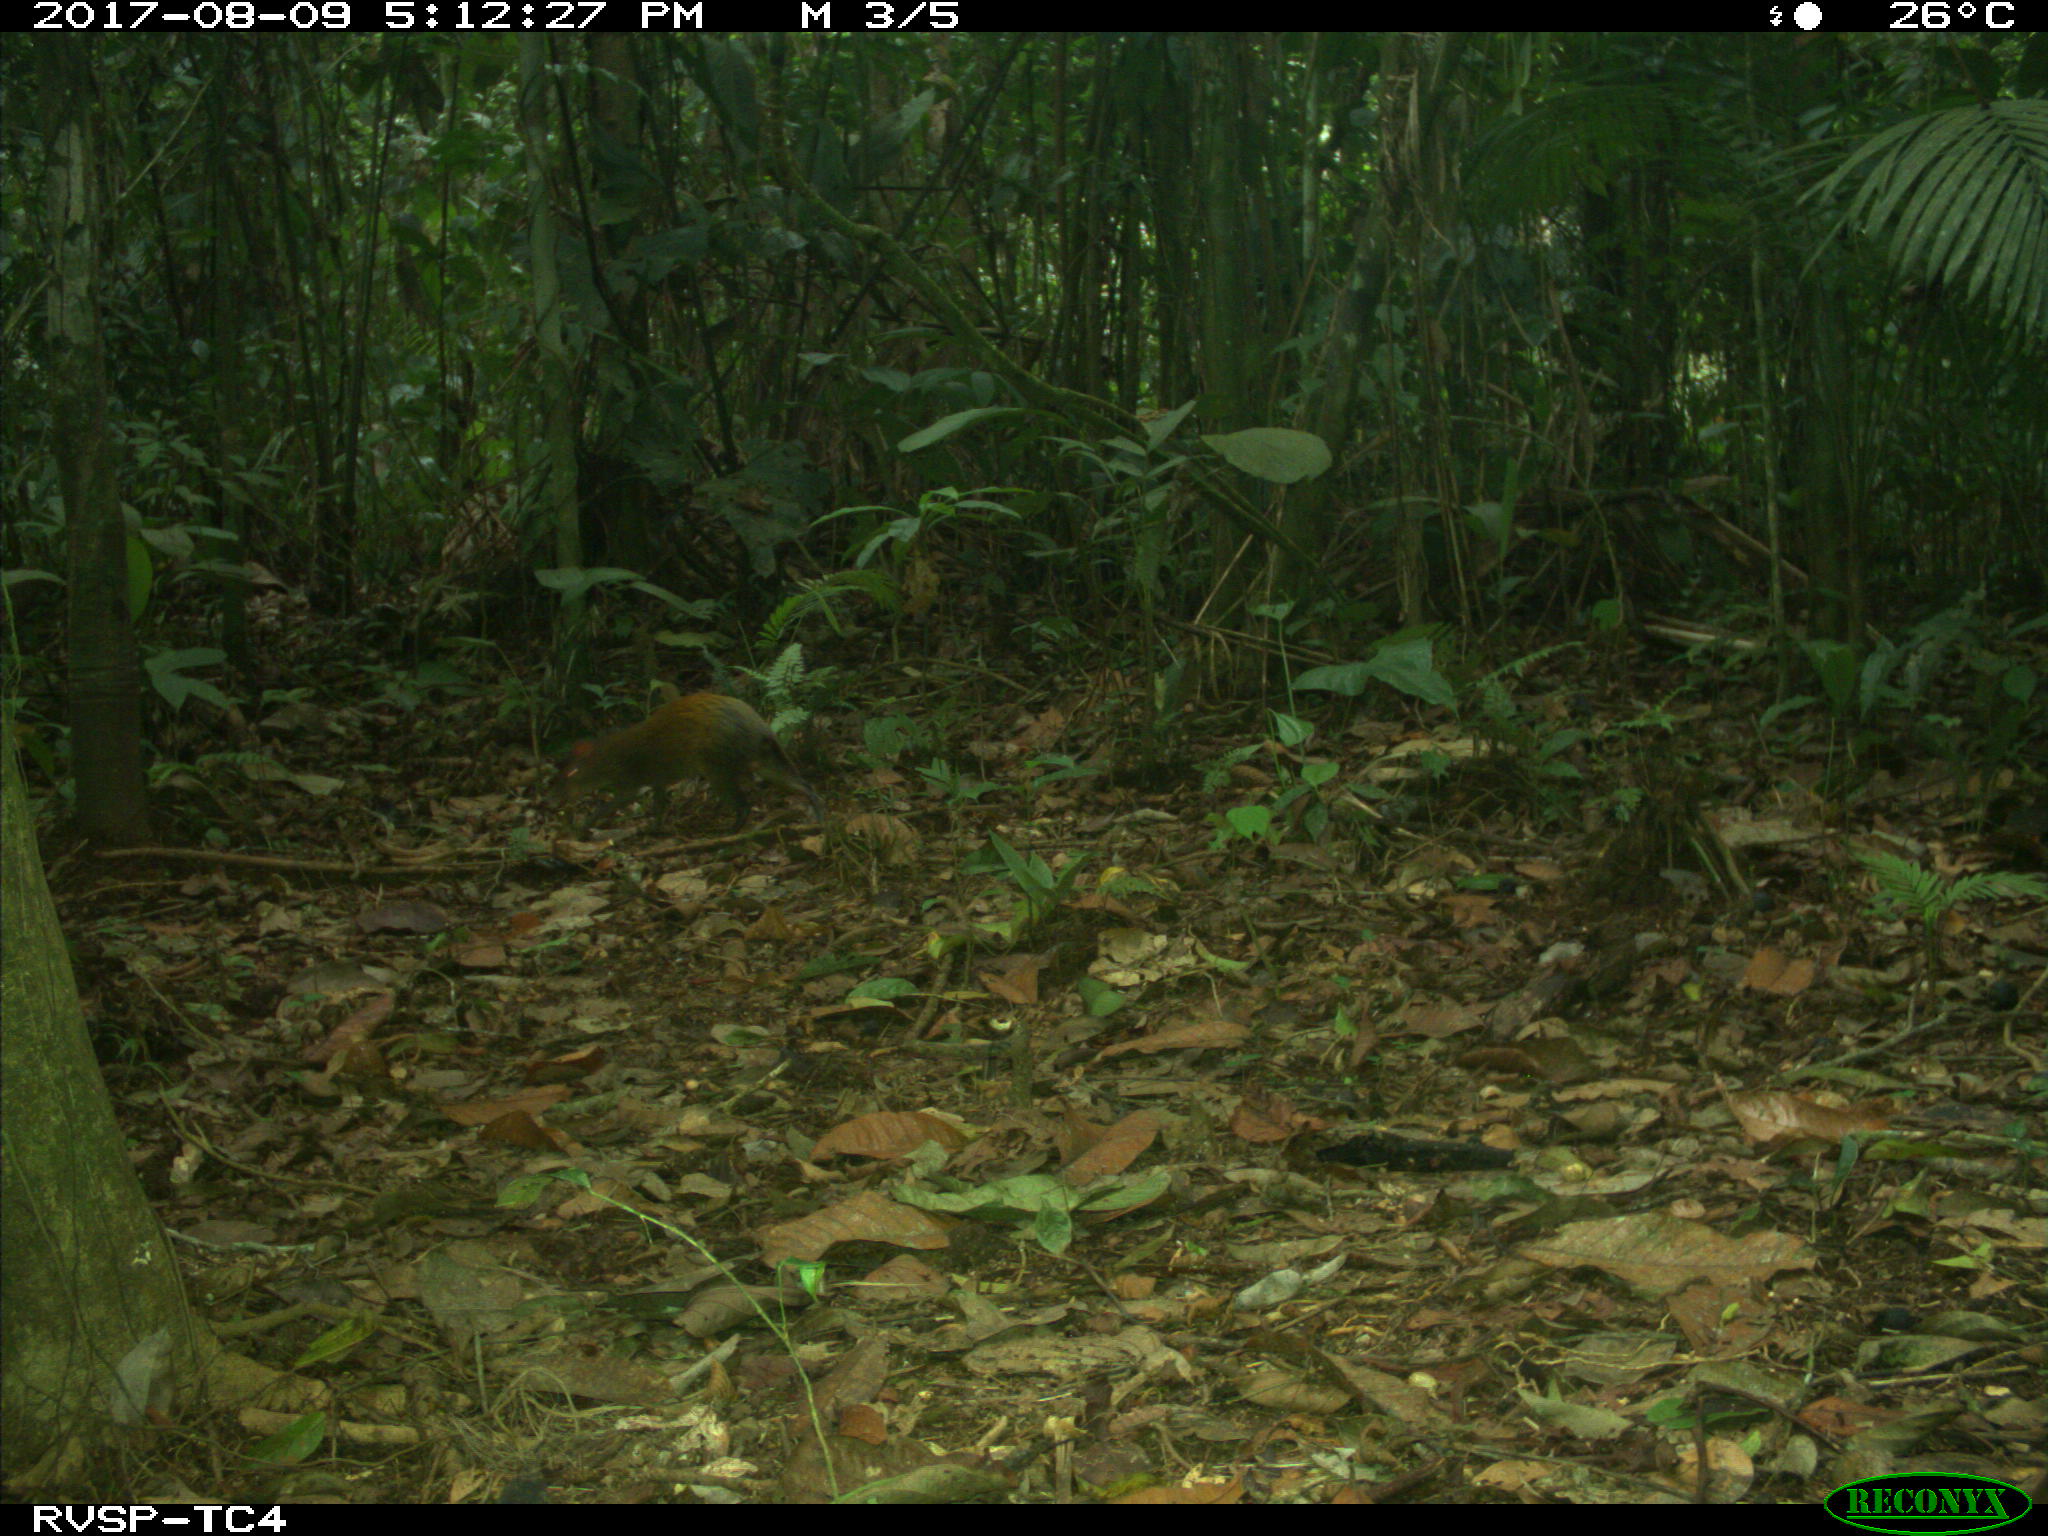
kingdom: Animalia
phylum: Chordata
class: Mammalia
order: Rodentia
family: Dasyproctidae
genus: Dasyprocta
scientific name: Dasyprocta punctata
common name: Central american agouti
